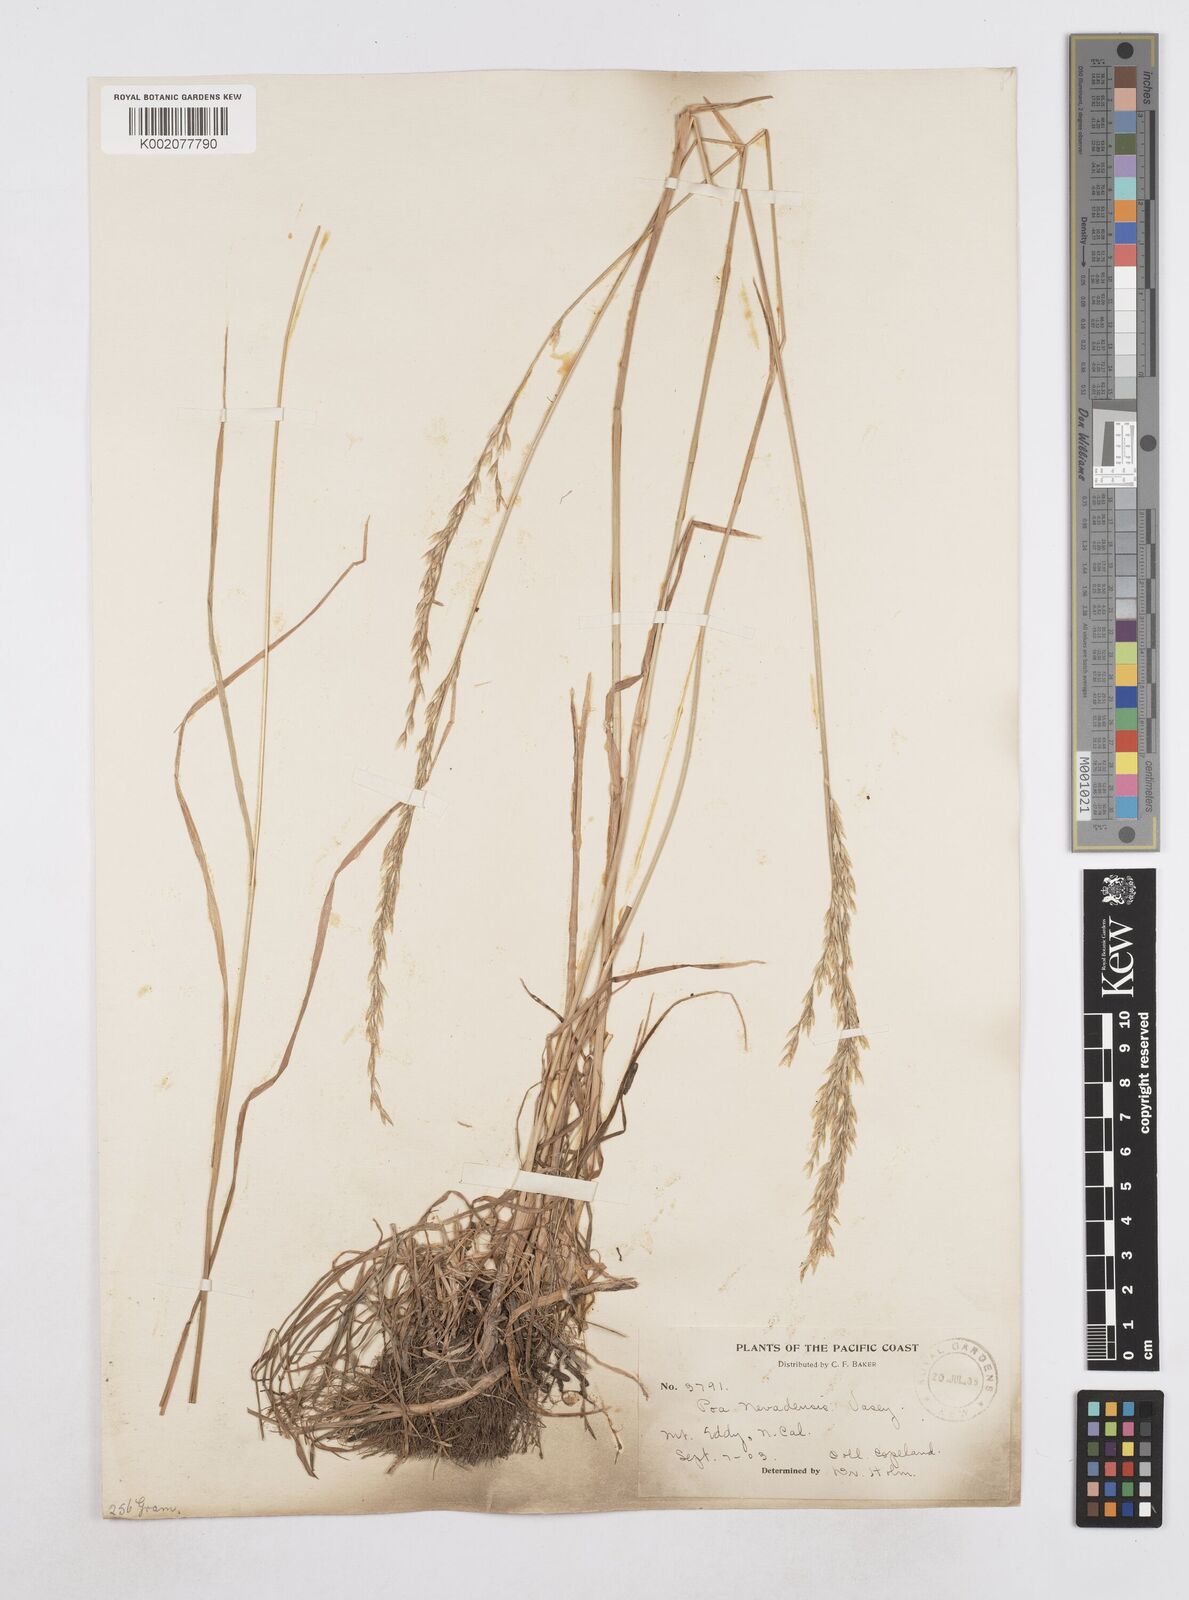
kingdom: Plantae
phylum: Tracheophyta
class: Liliopsida
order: Poales
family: Poaceae
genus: Poa
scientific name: Poa secunda
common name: Sandberg bluegrass
